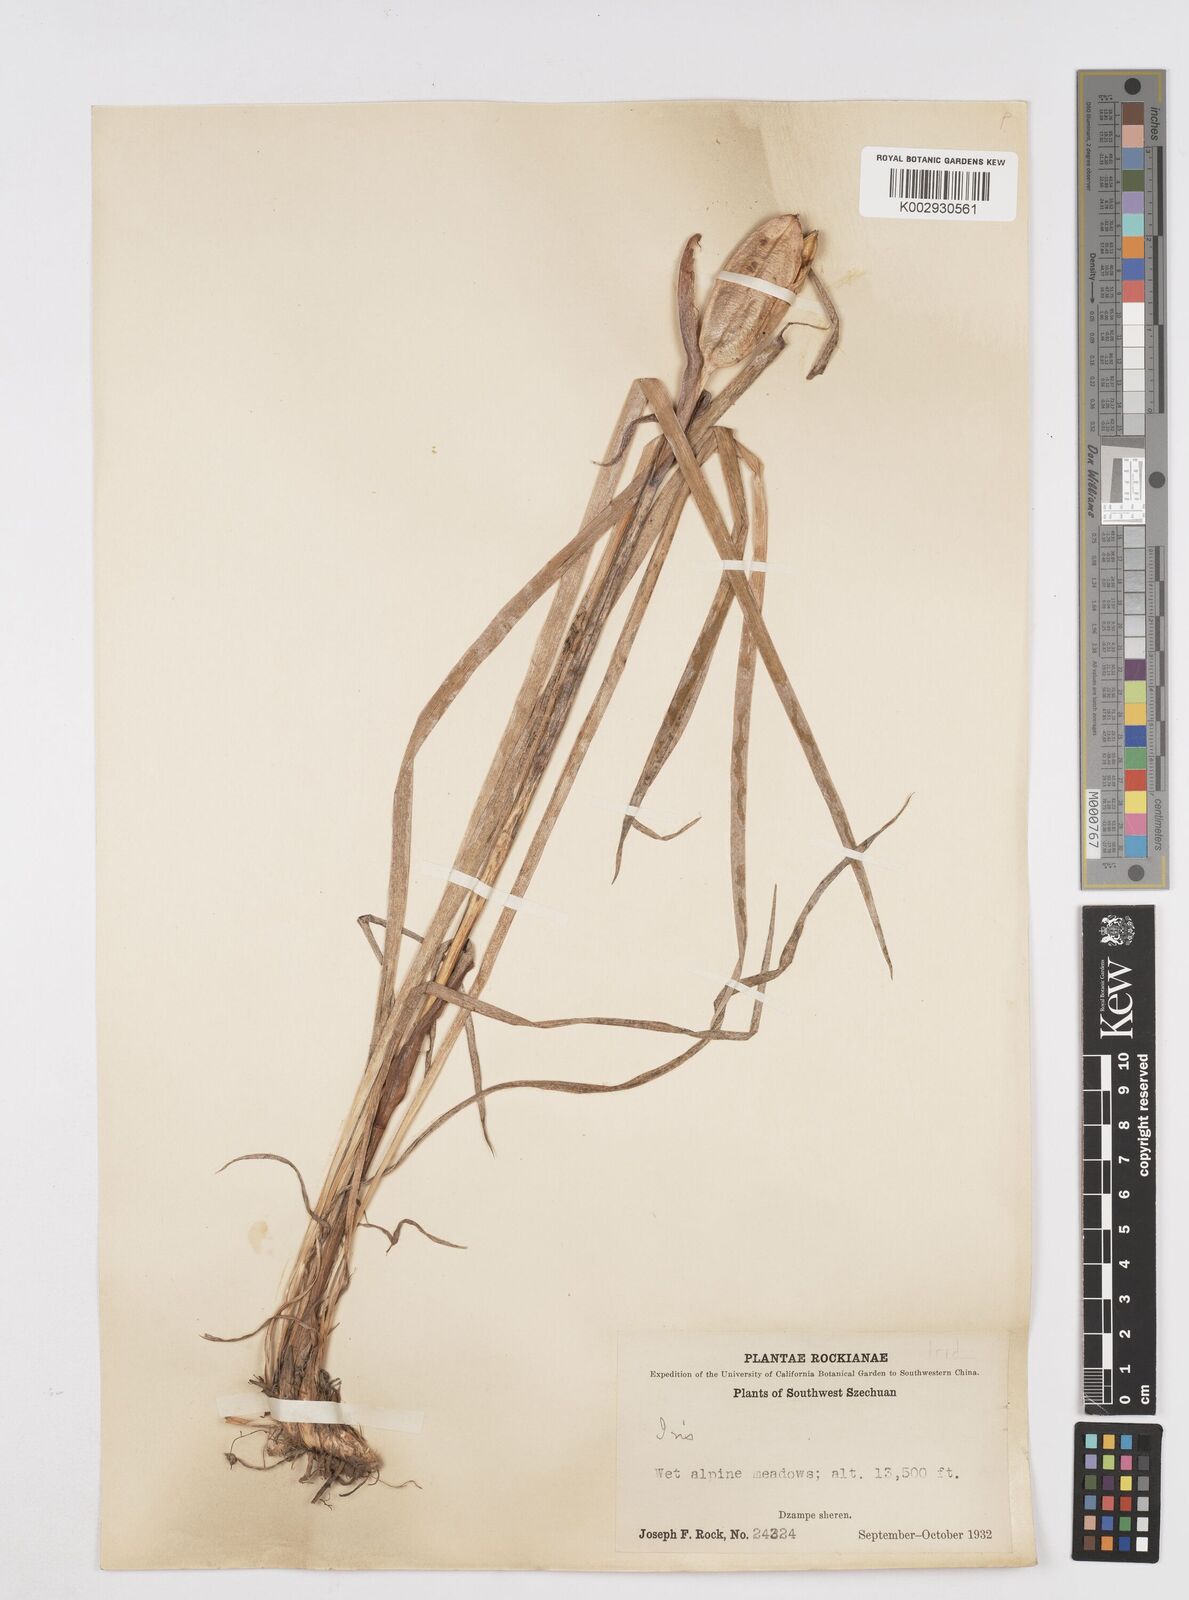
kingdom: Plantae
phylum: Tracheophyta
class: Liliopsida
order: Asparagales
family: Iridaceae
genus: Iris
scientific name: Iris bulleyana
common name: Southwest iris
